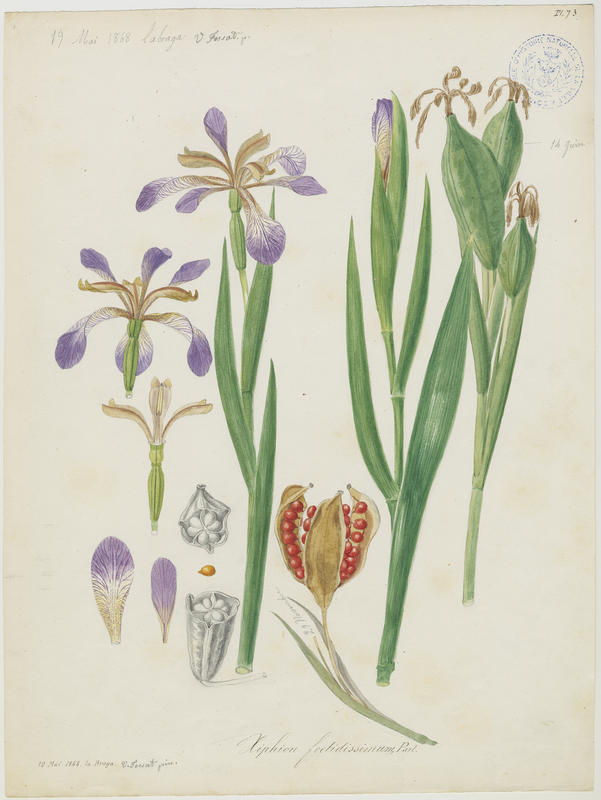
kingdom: Plantae
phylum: Tracheophyta
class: Liliopsida
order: Asparagales
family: Iridaceae
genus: Iris
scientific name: Iris foetidissima
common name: Stinking iris
